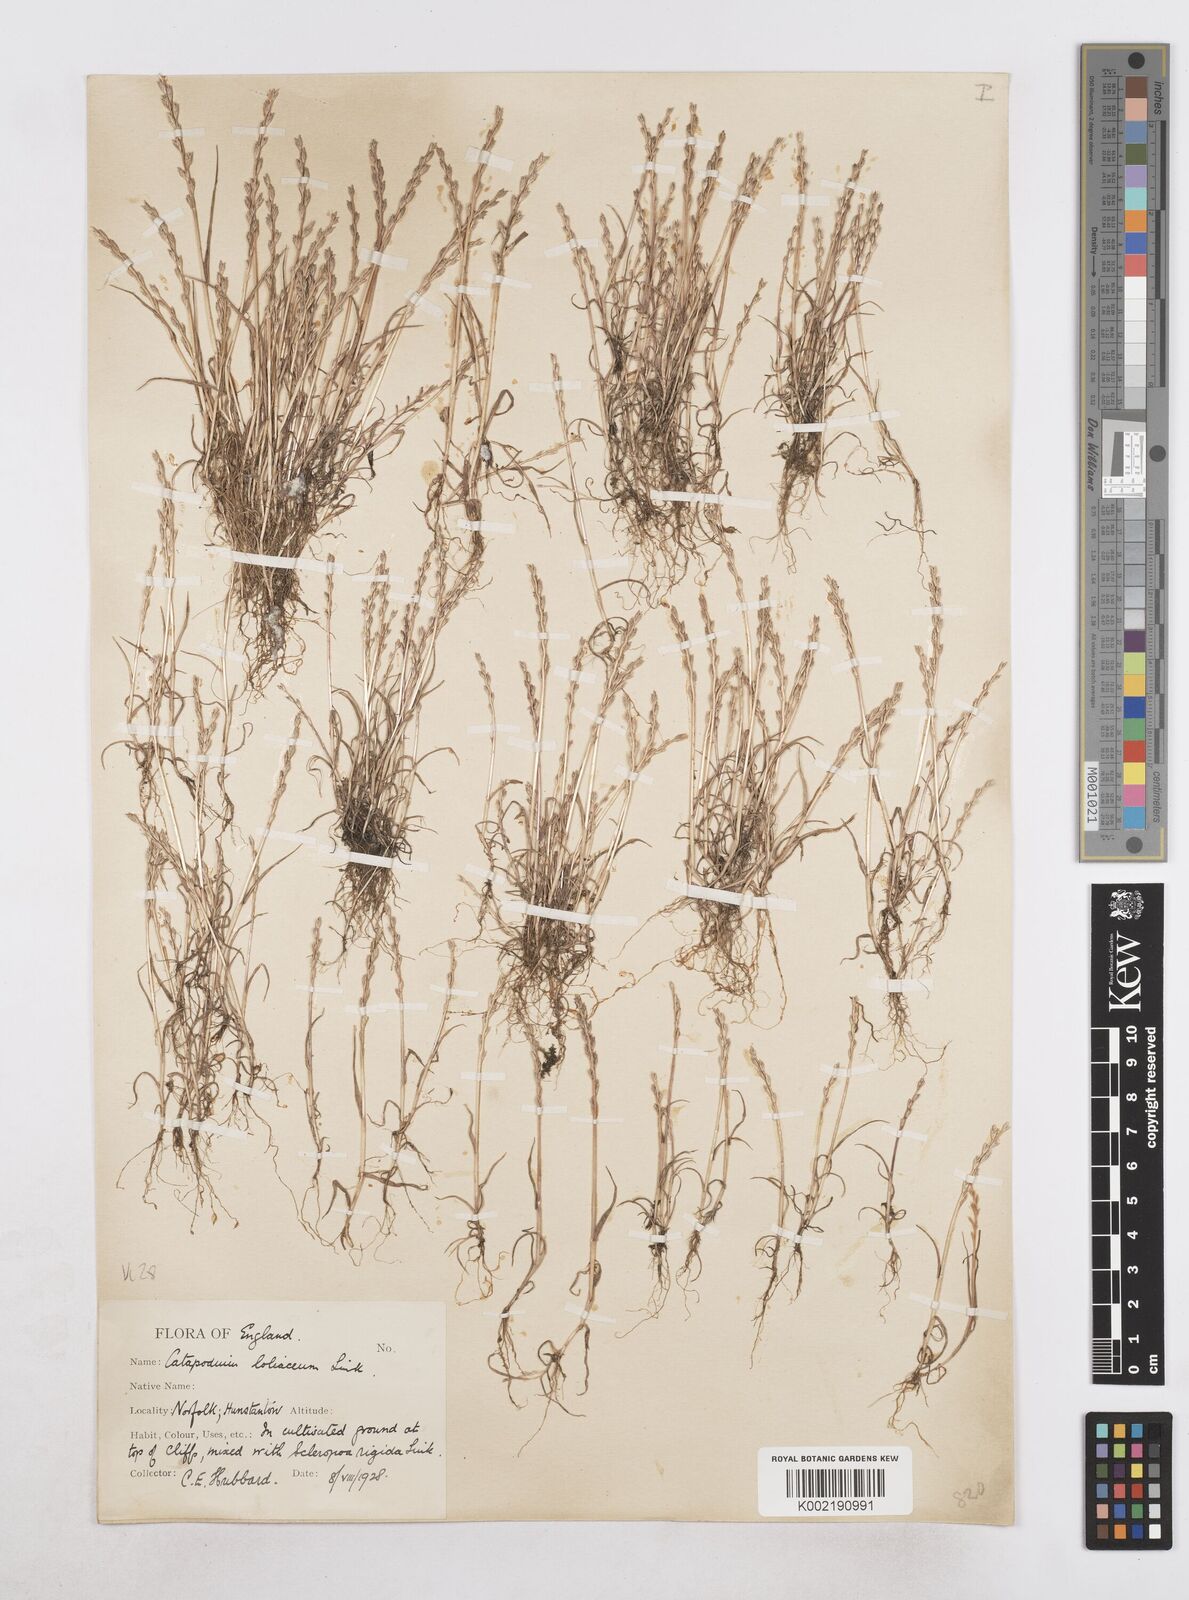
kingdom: Plantae
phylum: Tracheophyta
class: Liliopsida
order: Poales
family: Poaceae
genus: Catapodium
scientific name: Catapodium marinum
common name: Sea fern-grass
